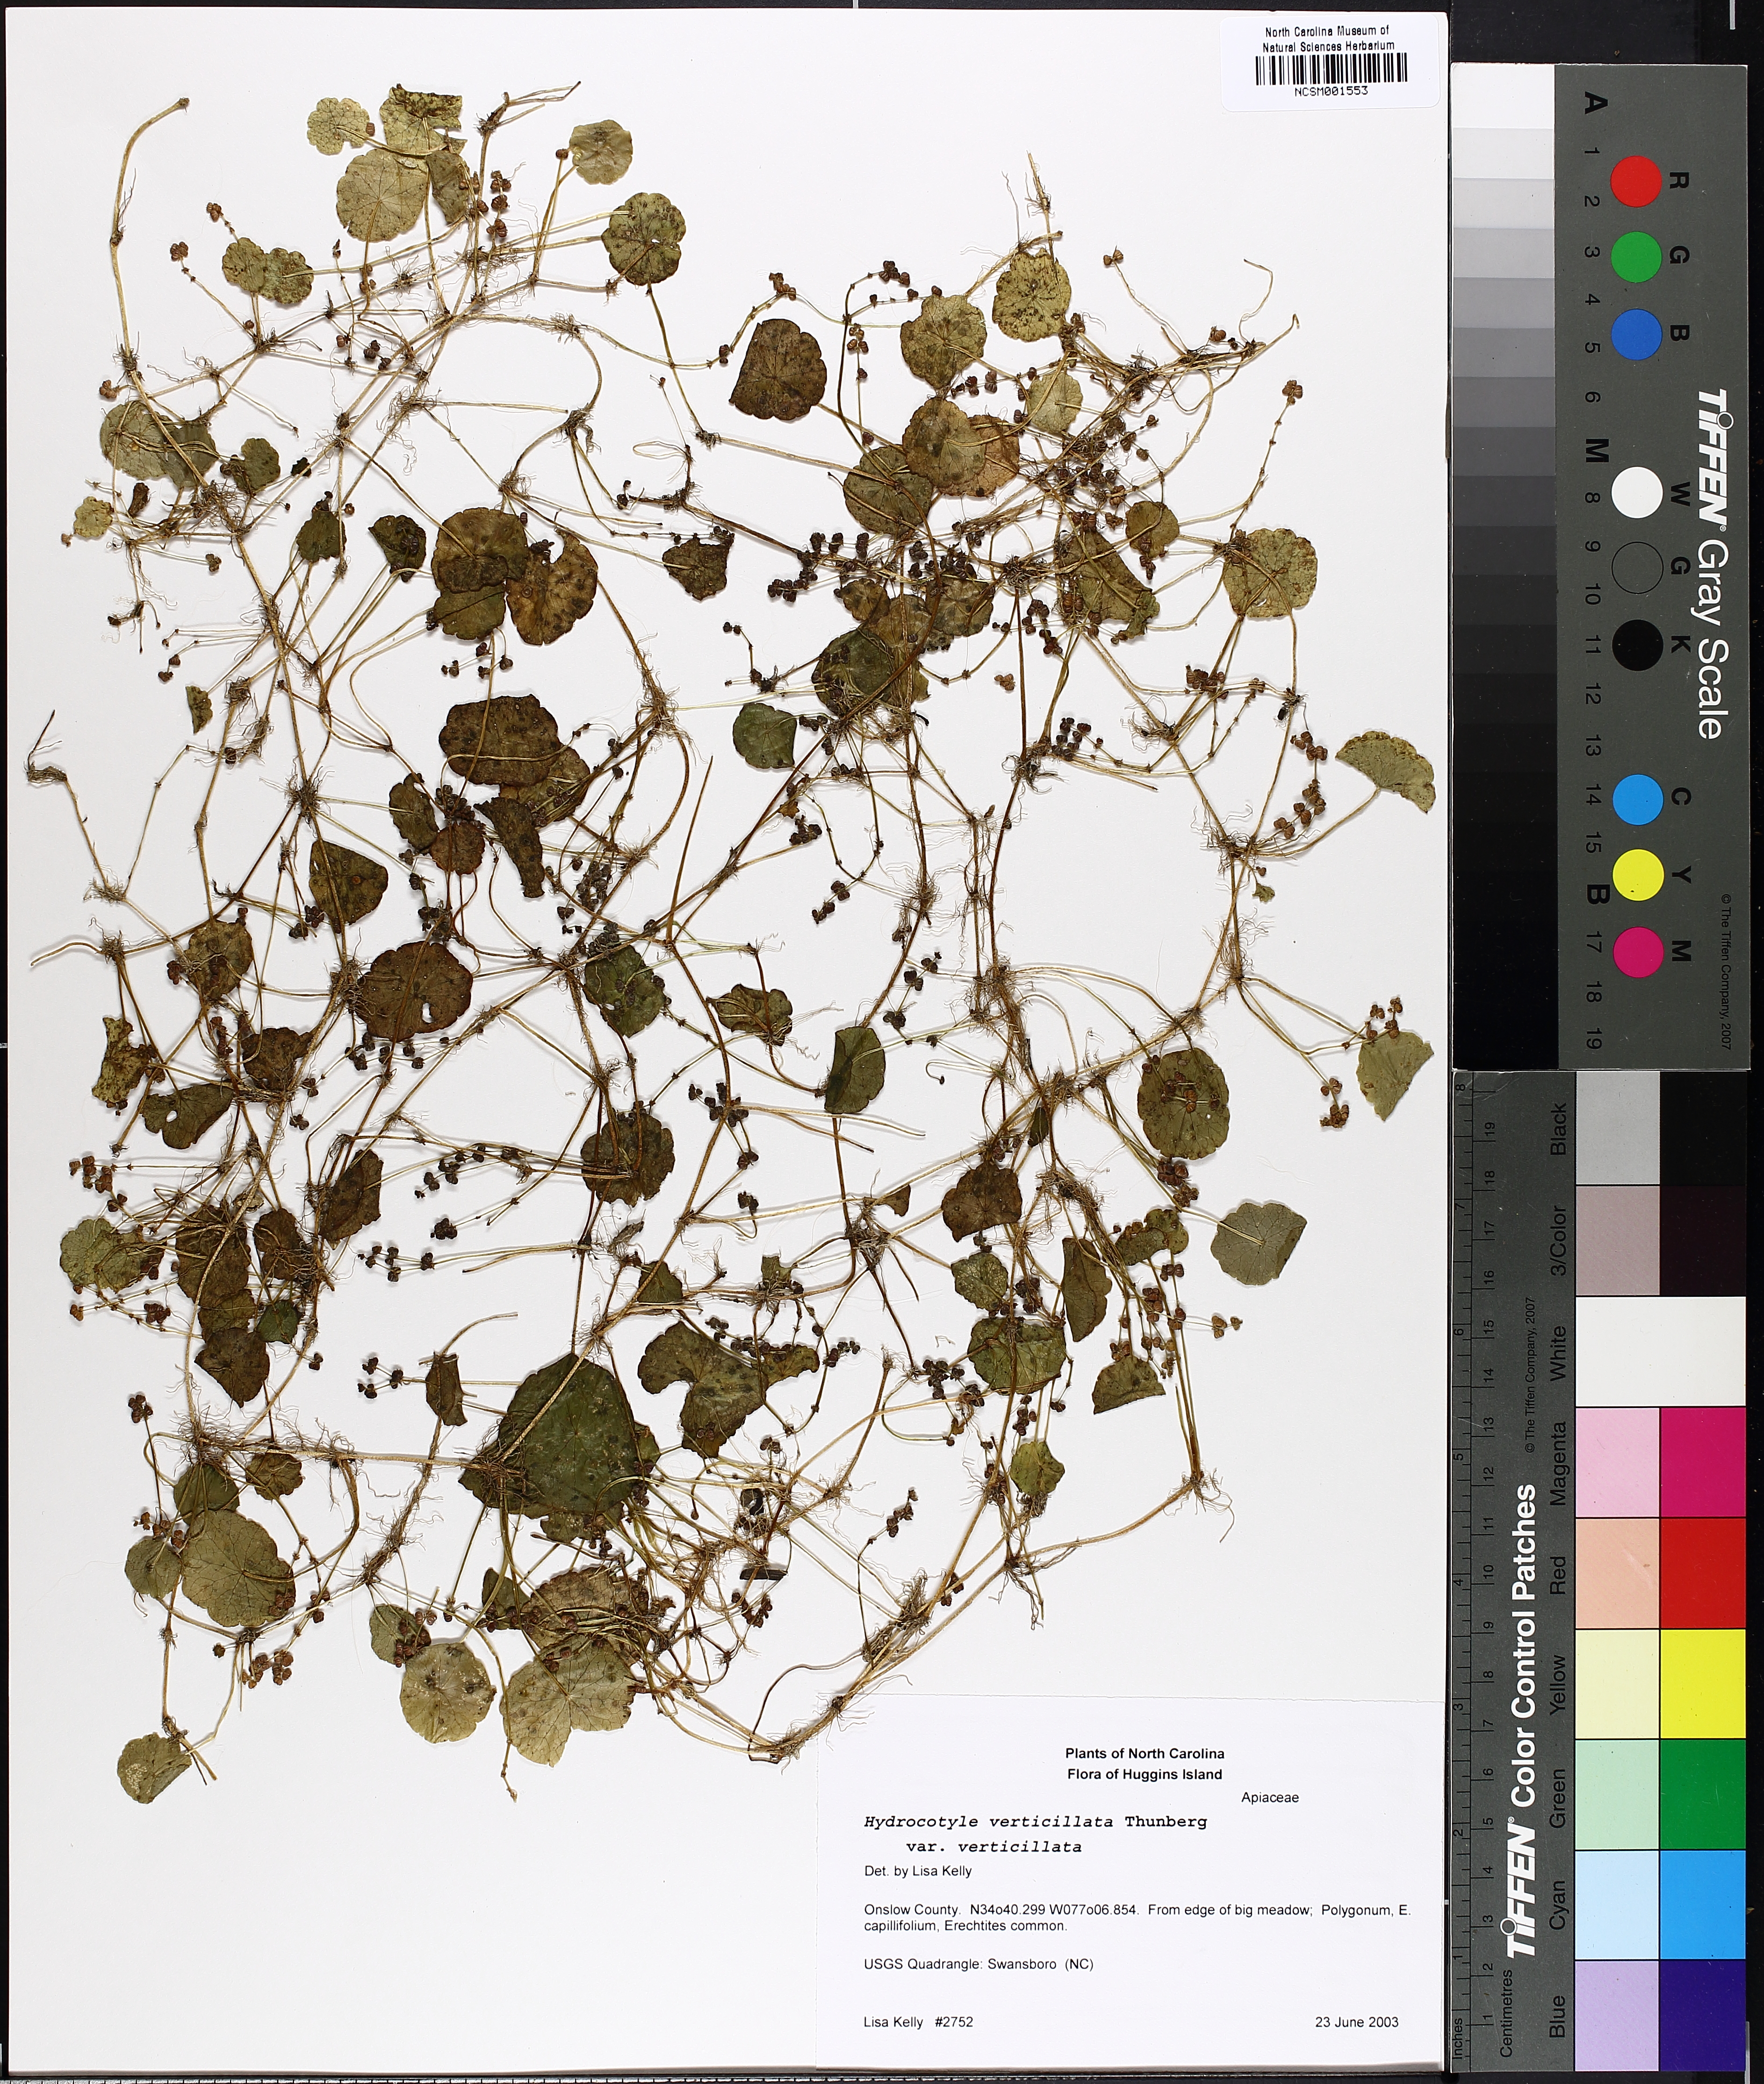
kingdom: Plantae
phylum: Tracheophyta
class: Magnoliopsida
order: Apiales
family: Araliaceae
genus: Hydrocotyle
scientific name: Hydrocotyle verticillata
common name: Whorled marshpennywort
